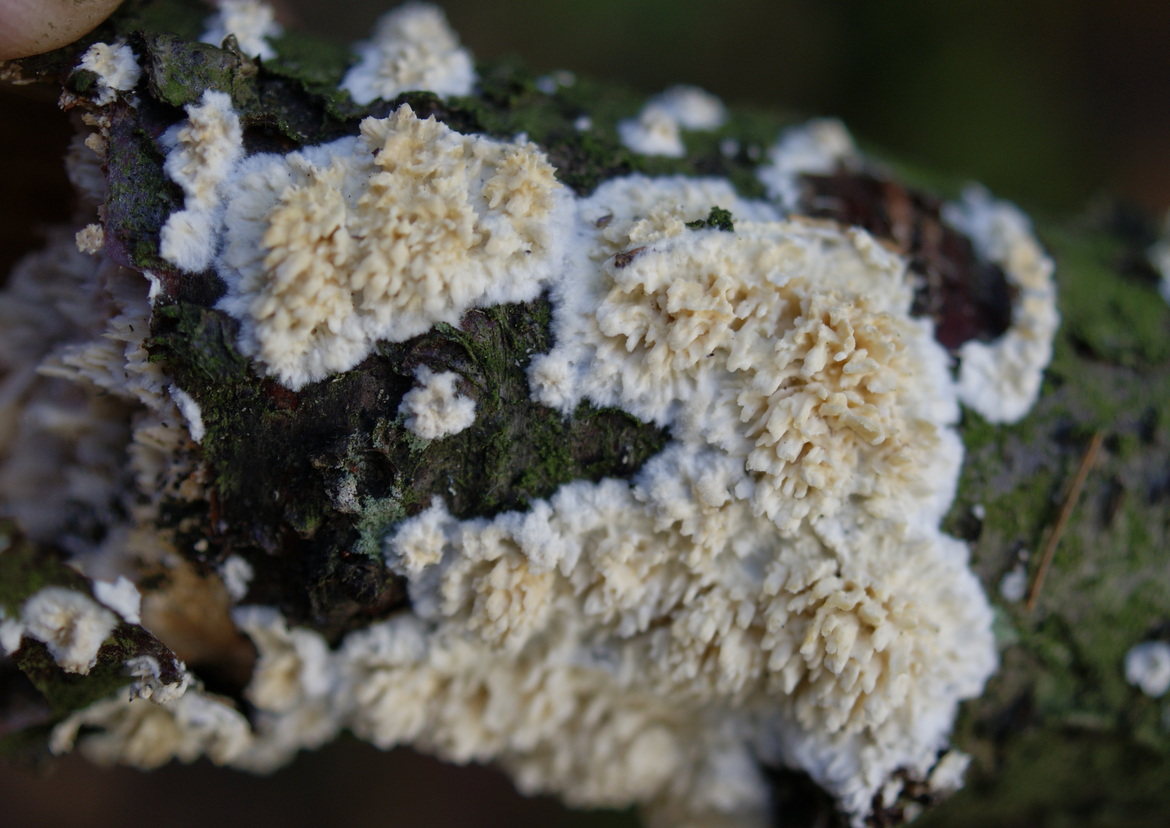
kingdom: Fungi
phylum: Basidiomycota
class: Agaricomycetes
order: Hymenochaetales
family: Schizoporaceae
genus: Xylodon
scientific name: Xylodon radula
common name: grovtandet kalkskind
